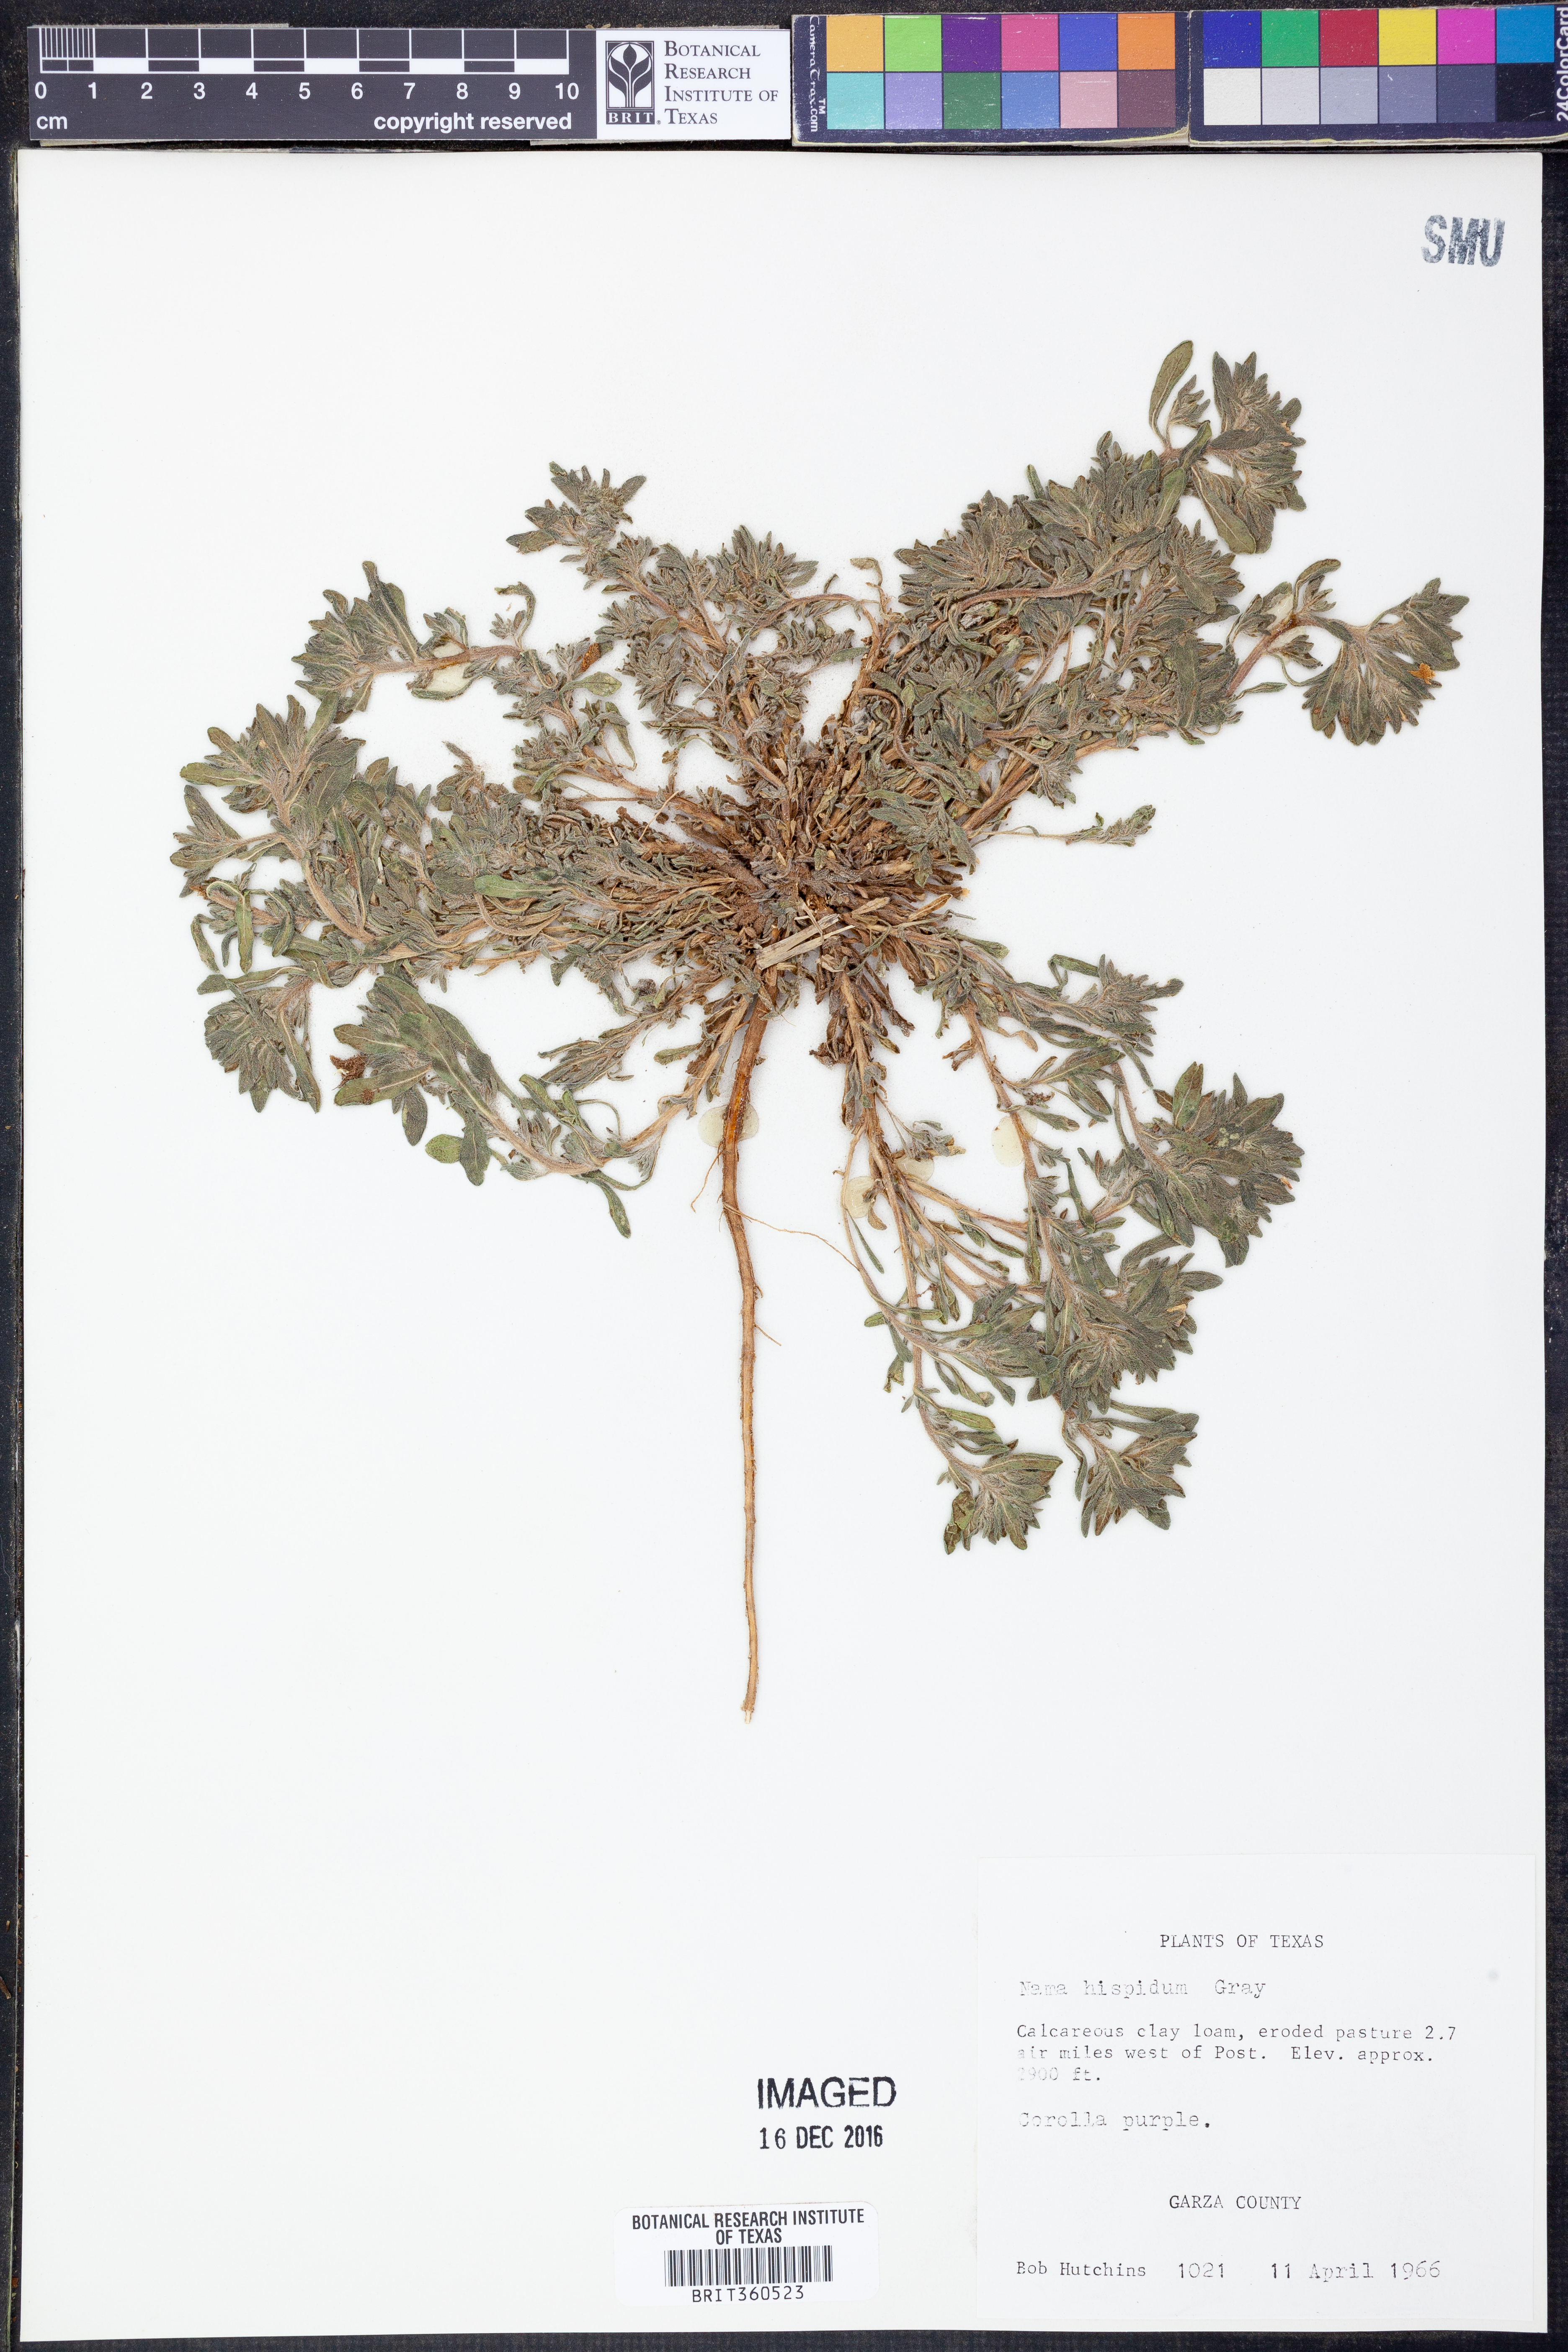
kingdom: Plantae
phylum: Tracheophyta
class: Magnoliopsida
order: Boraginales
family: Namaceae
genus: Nama
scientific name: Nama hispida
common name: Bristly nama
